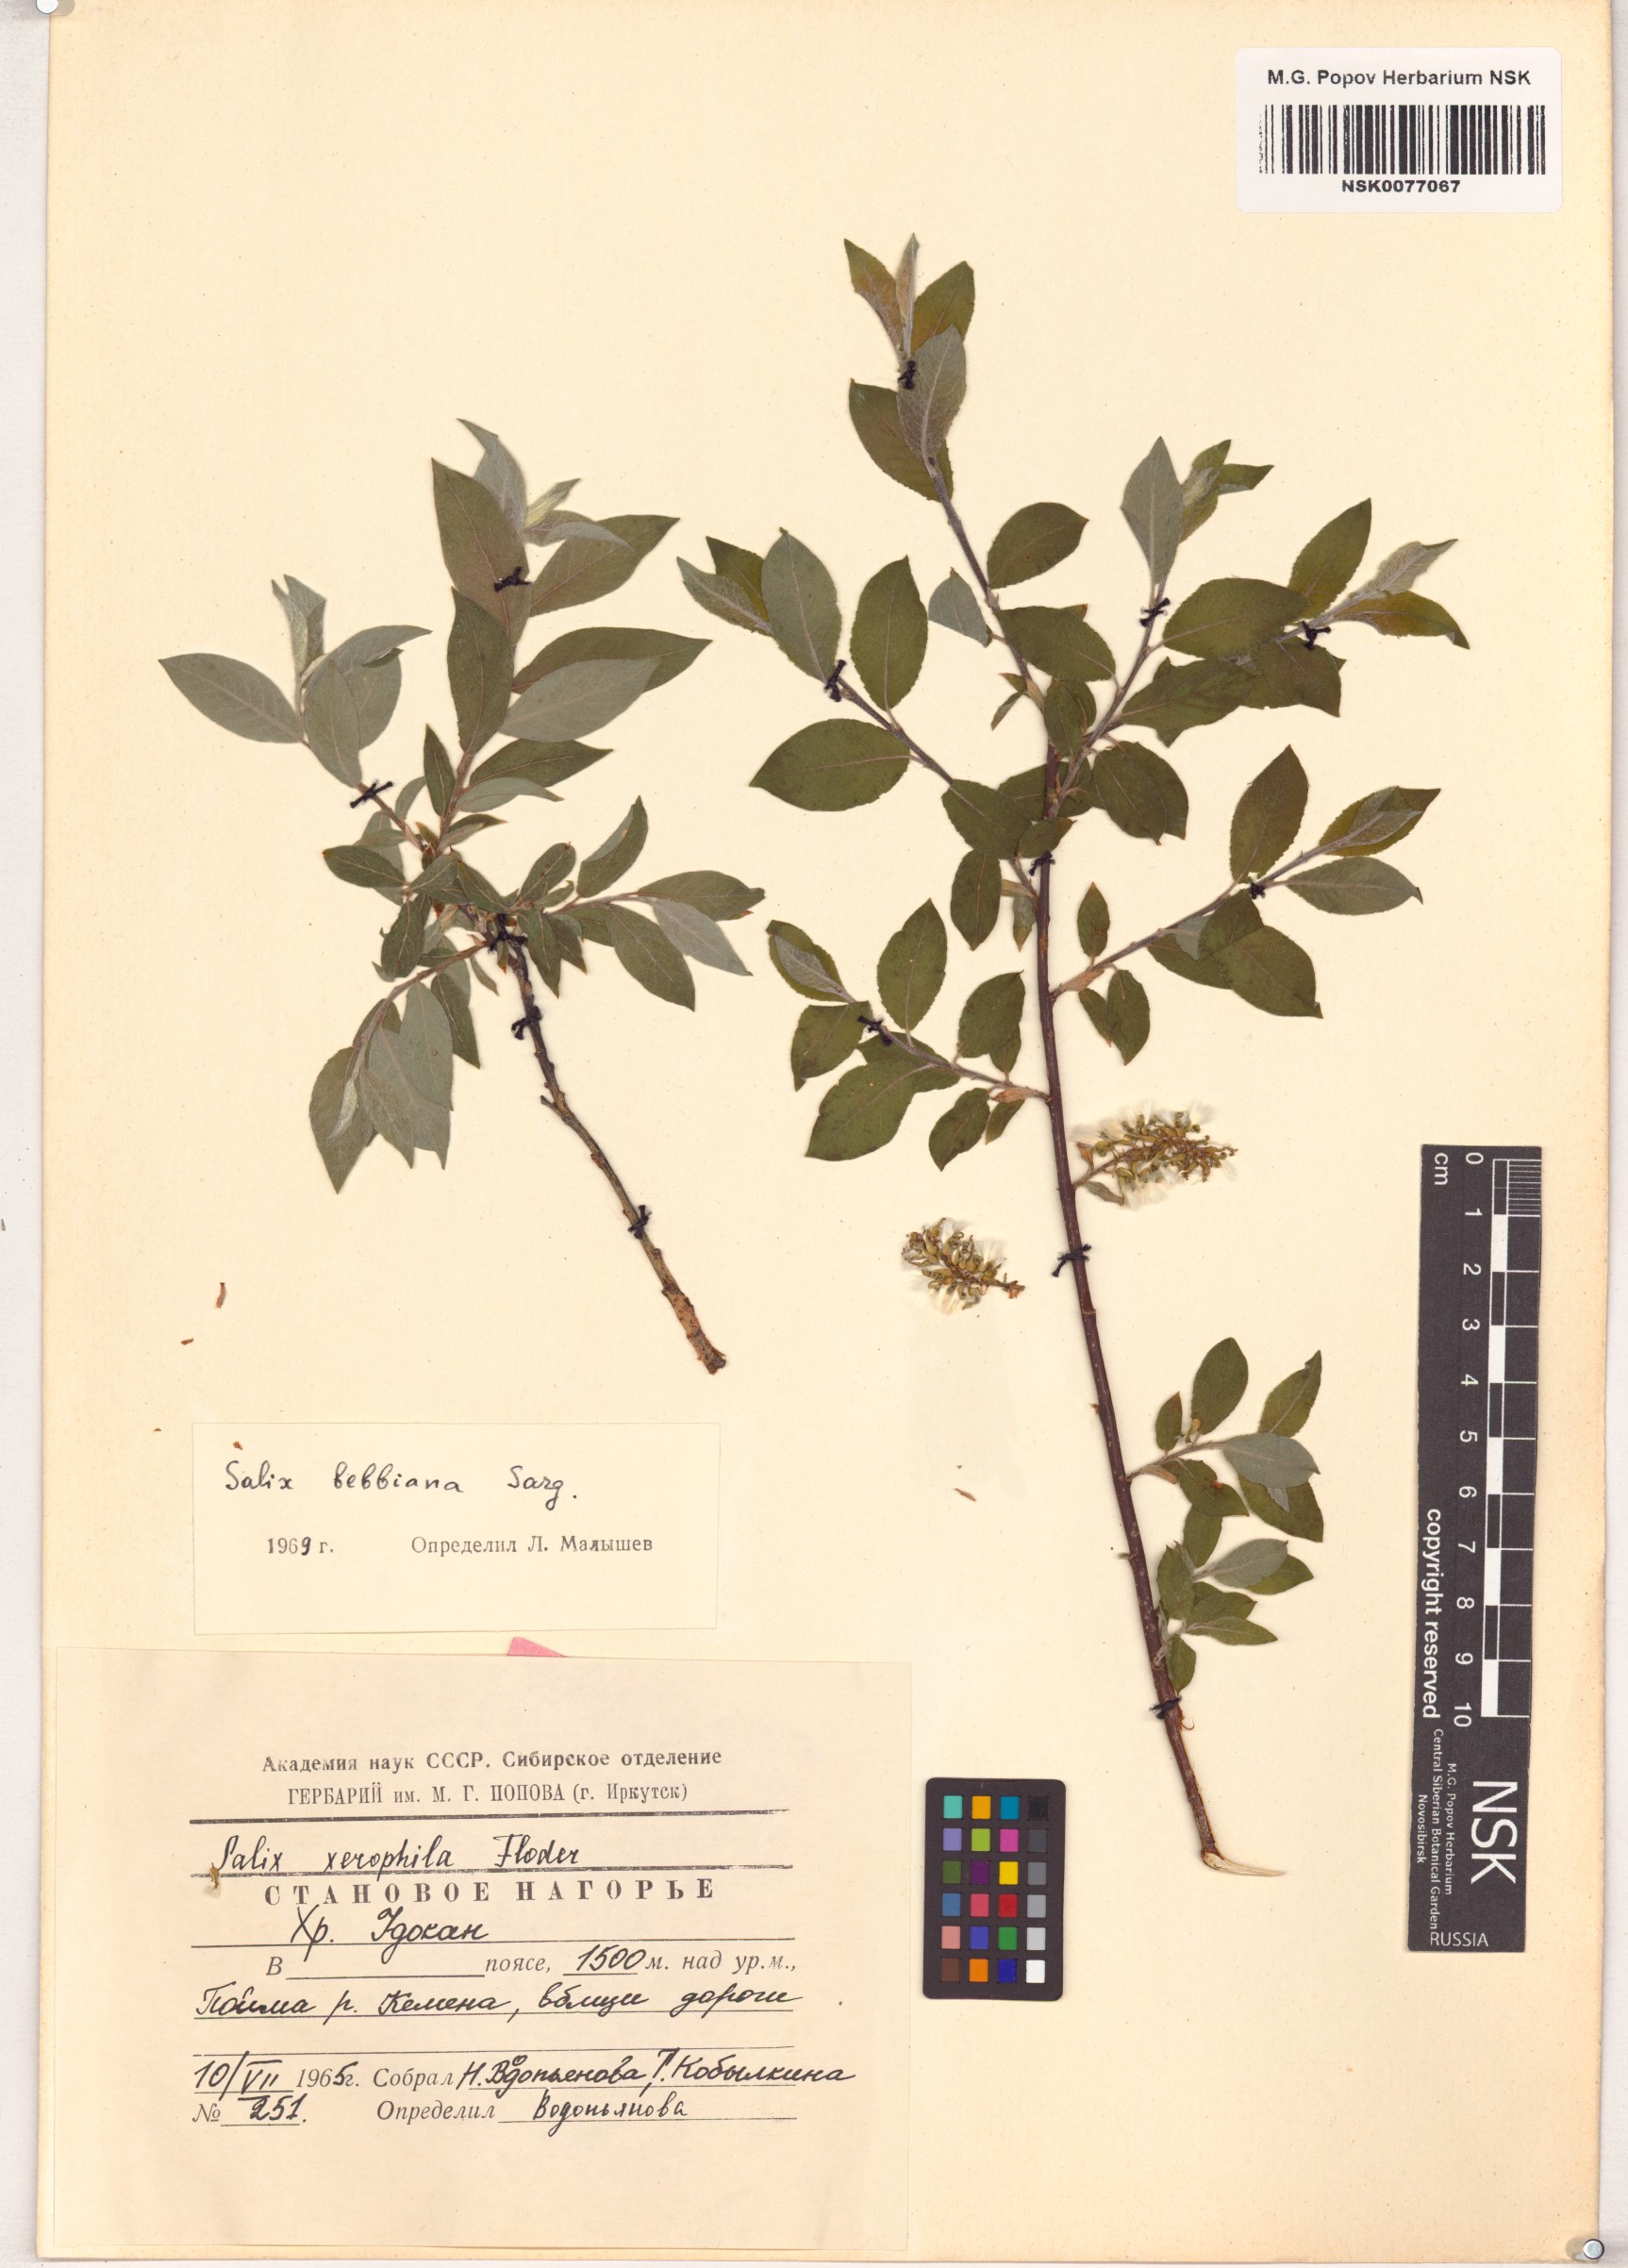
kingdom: Plantae
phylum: Tracheophyta
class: Magnoliopsida
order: Malpighiales
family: Salicaceae
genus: Salix
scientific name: Salix bebbiana
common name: Bebb's willow
